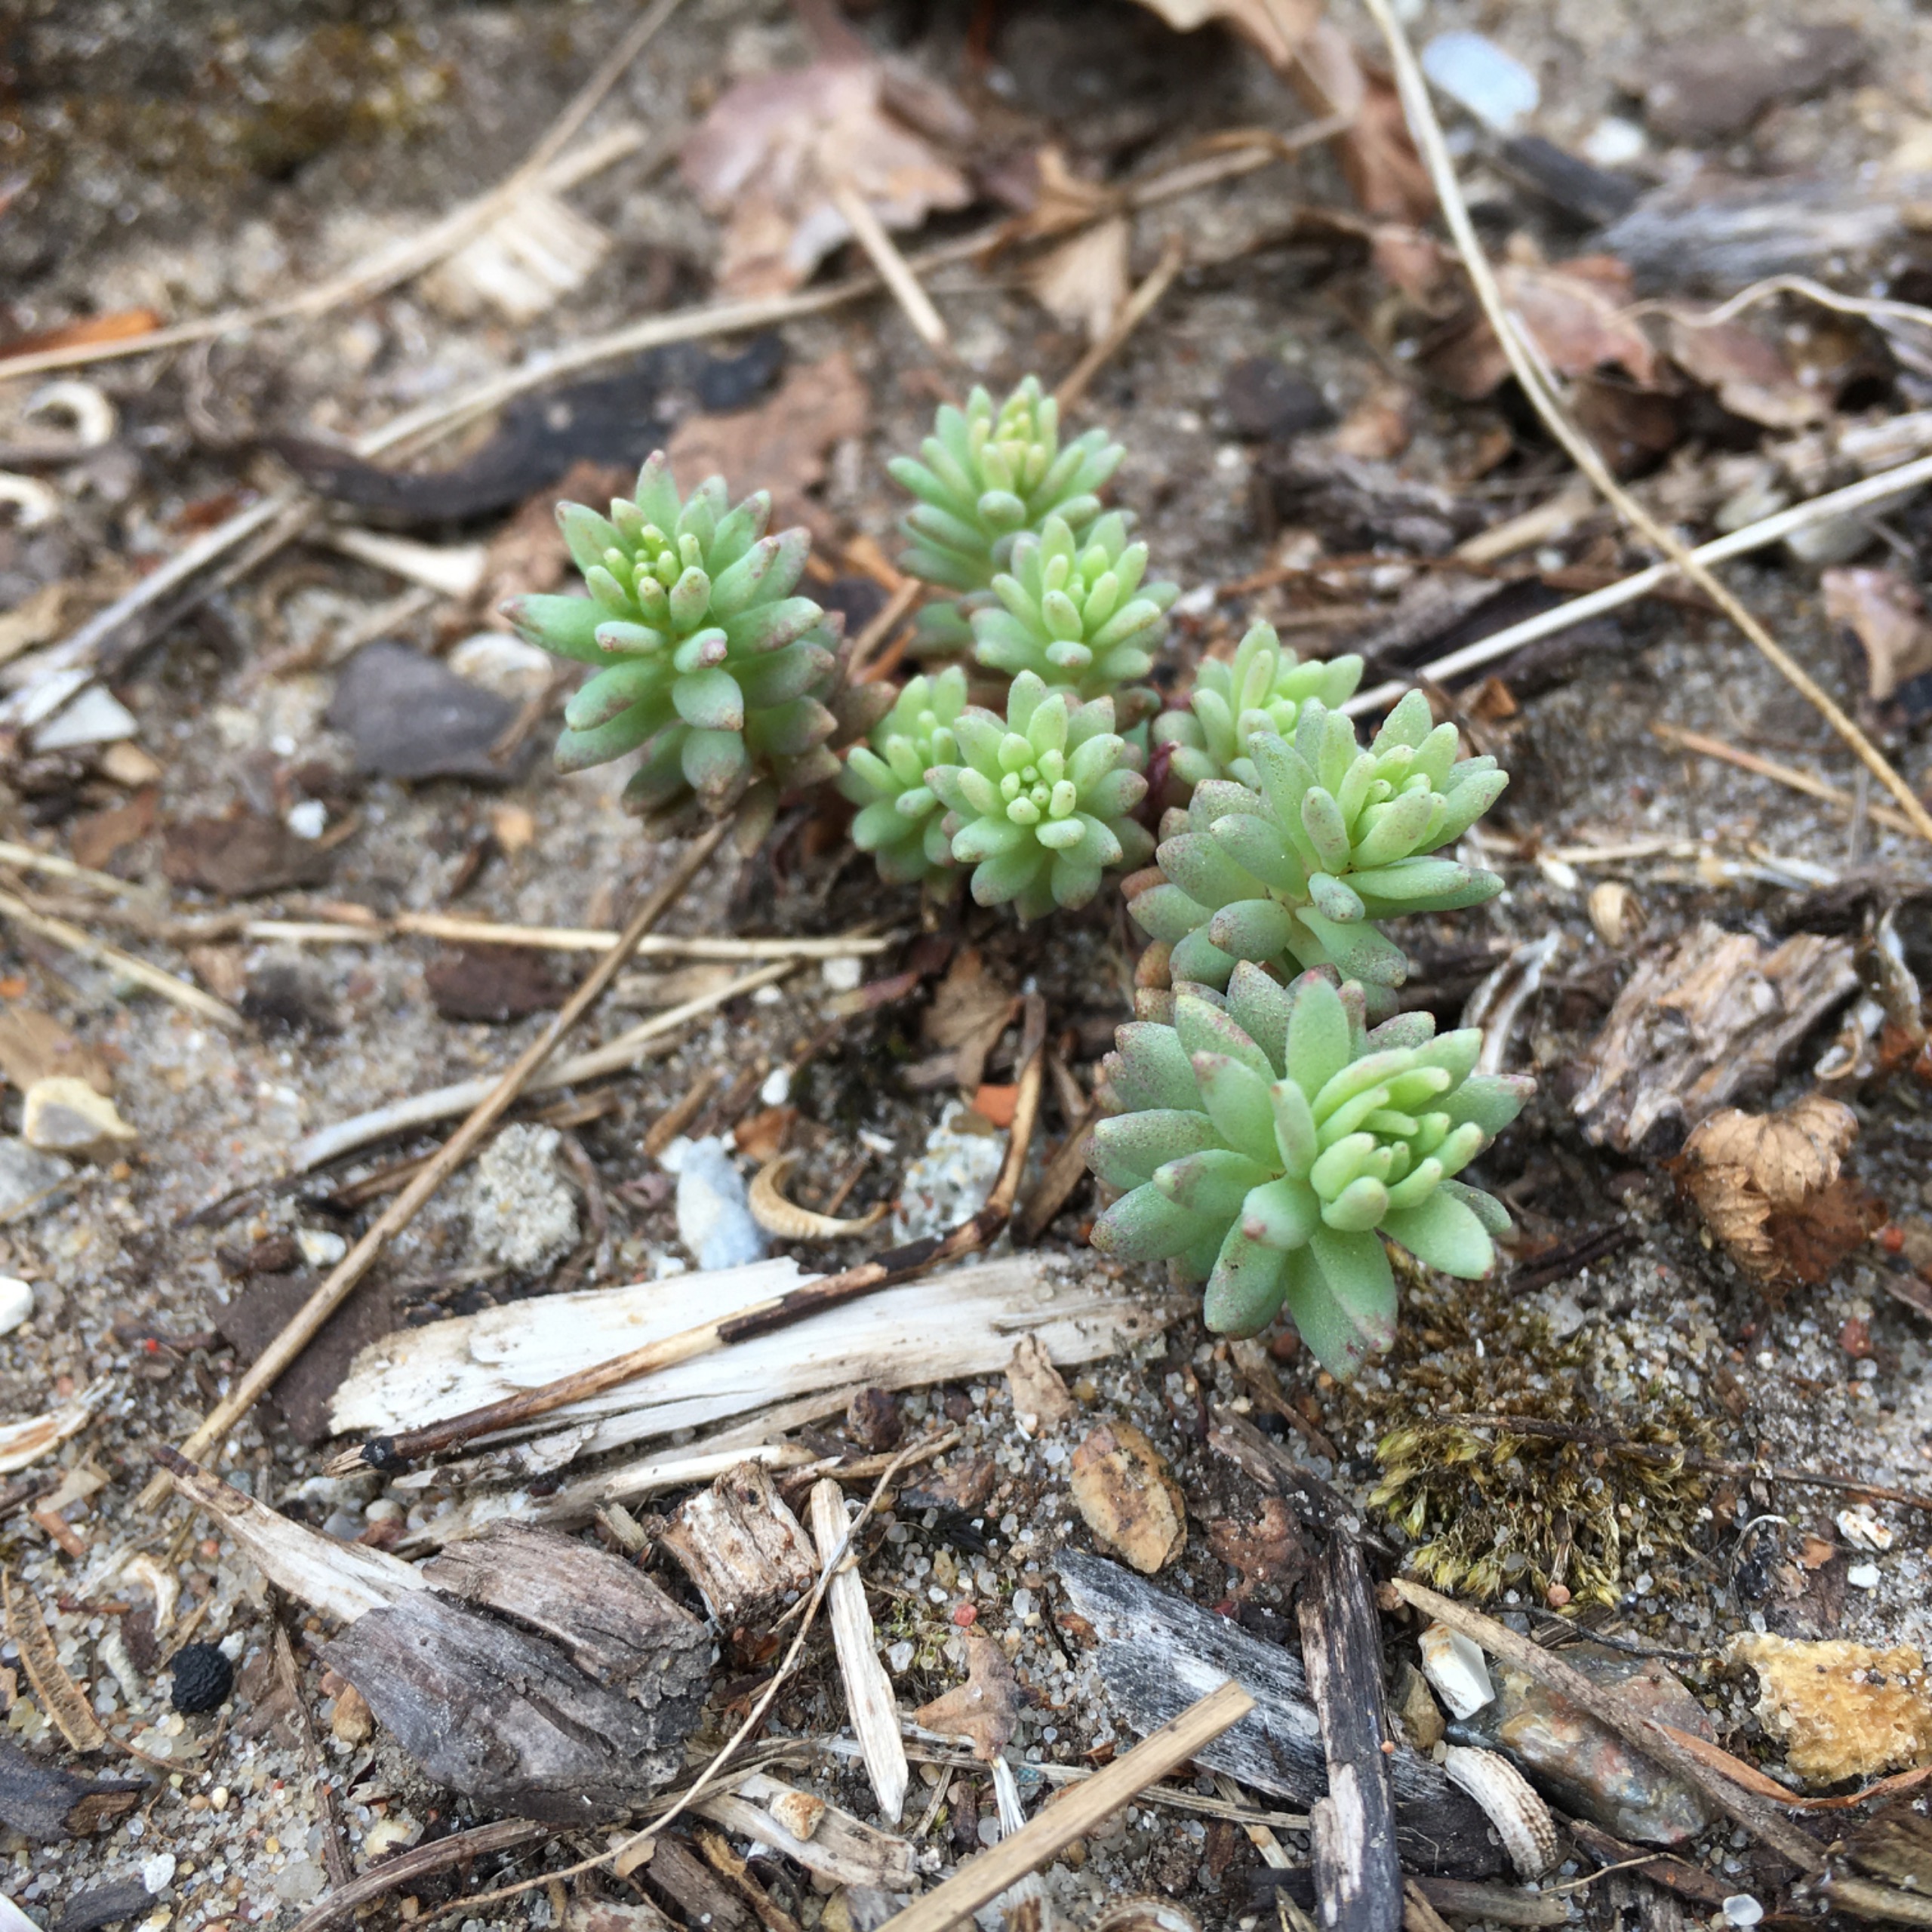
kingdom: Plantae
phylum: Tracheophyta
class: Magnoliopsida
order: Saxifragales
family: Crassulaceae
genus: Sedum
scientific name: Sedum hispanicum
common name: Bleg stenurt
